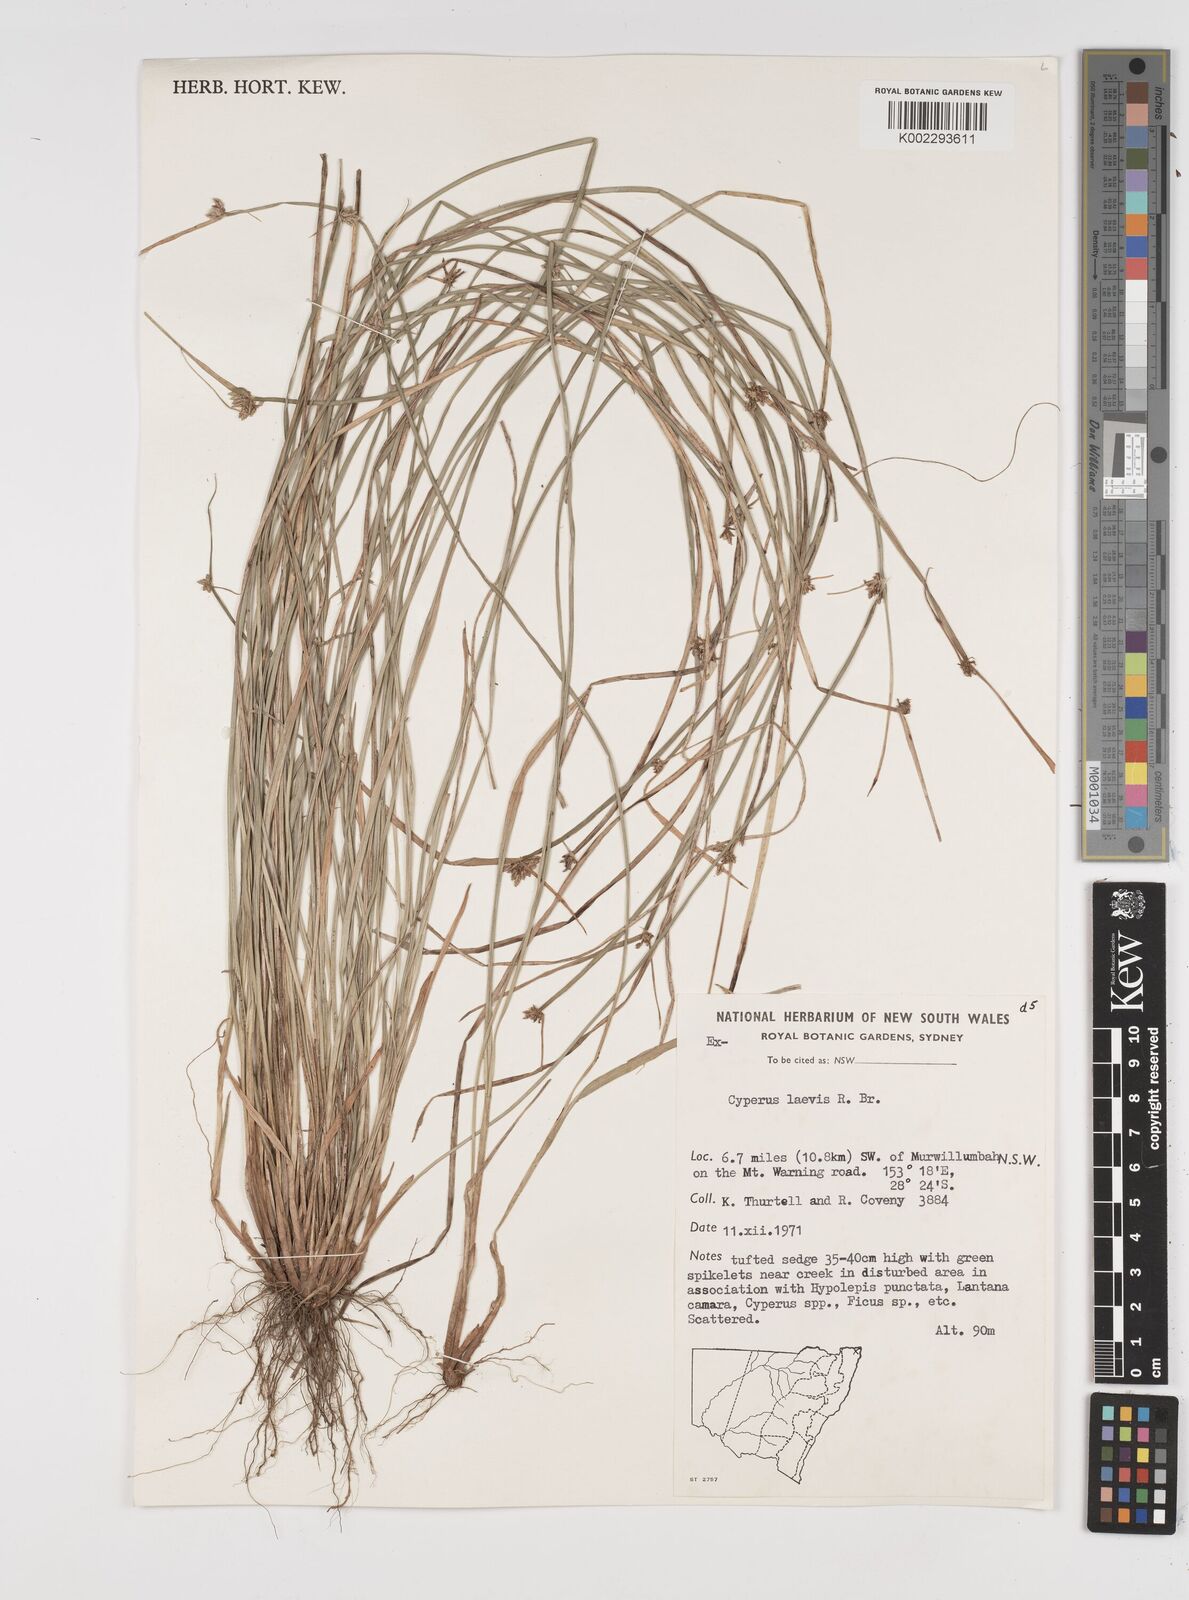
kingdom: Plantae
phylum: Tracheophyta
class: Liliopsida
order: Poales
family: Cyperaceae
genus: Cyperus
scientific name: Cyperus laevis
